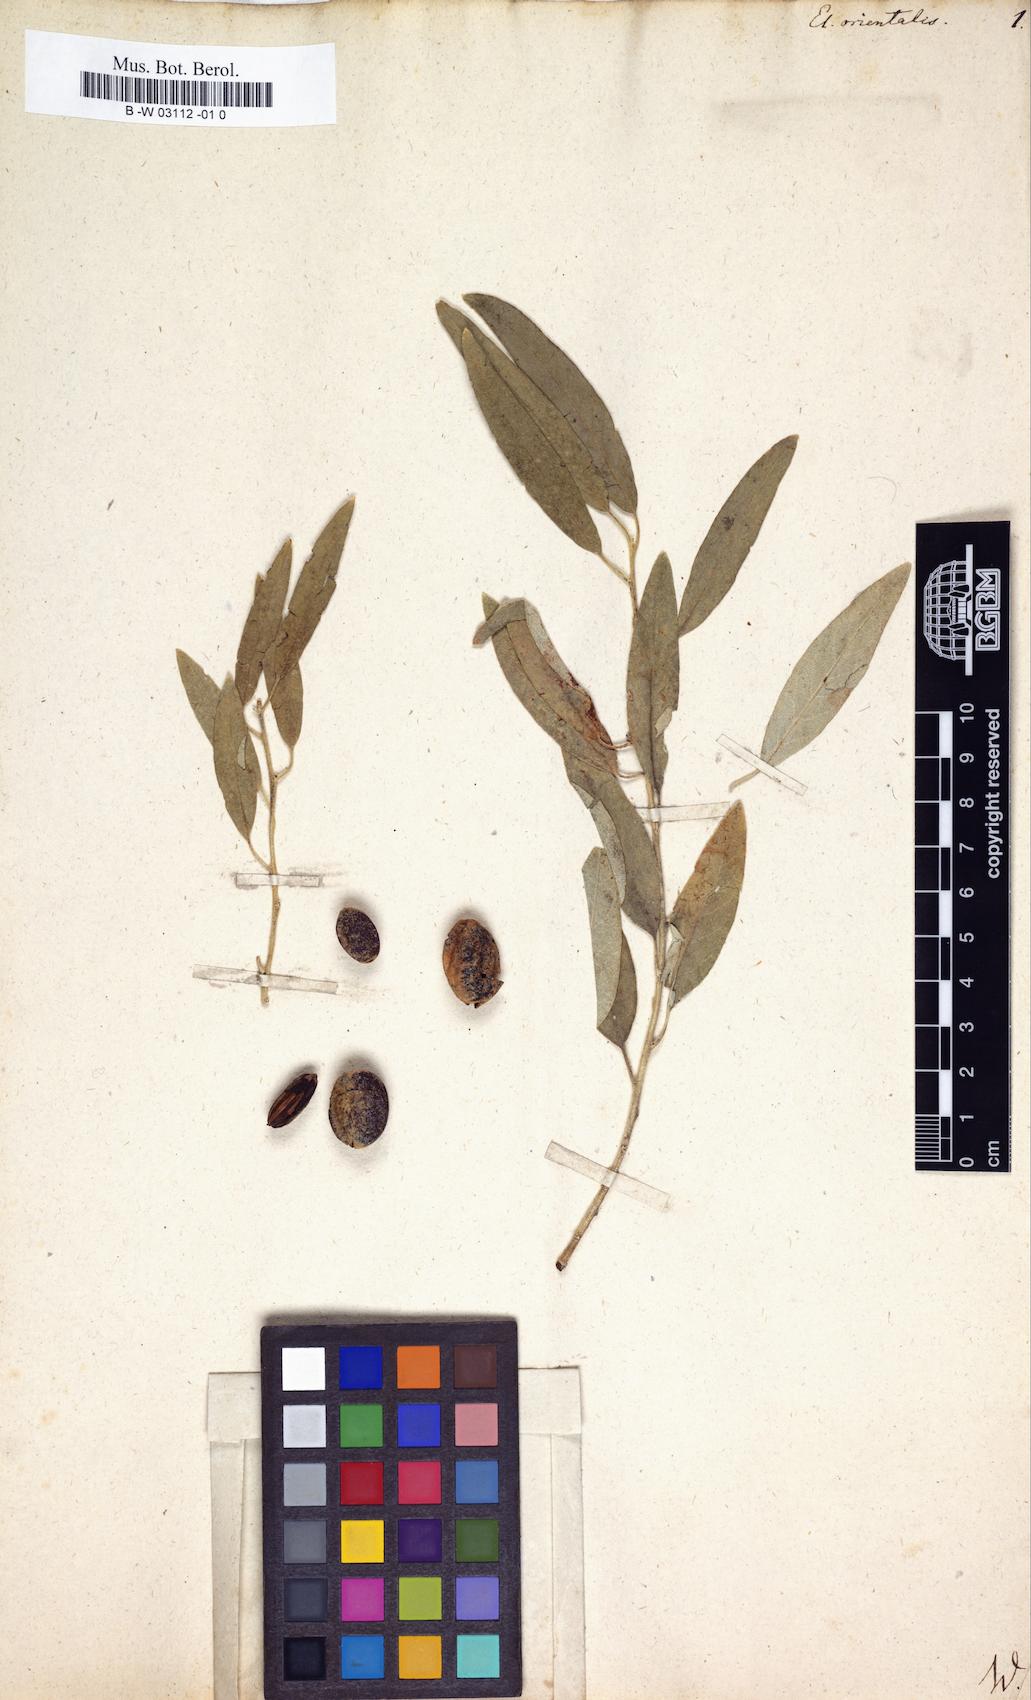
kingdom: Plantae
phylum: Tracheophyta
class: Magnoliopsida
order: Rosales
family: Elaeagnaceae
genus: Elaeagnus
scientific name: Elaeagnus angustifolia
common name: Russian olive
